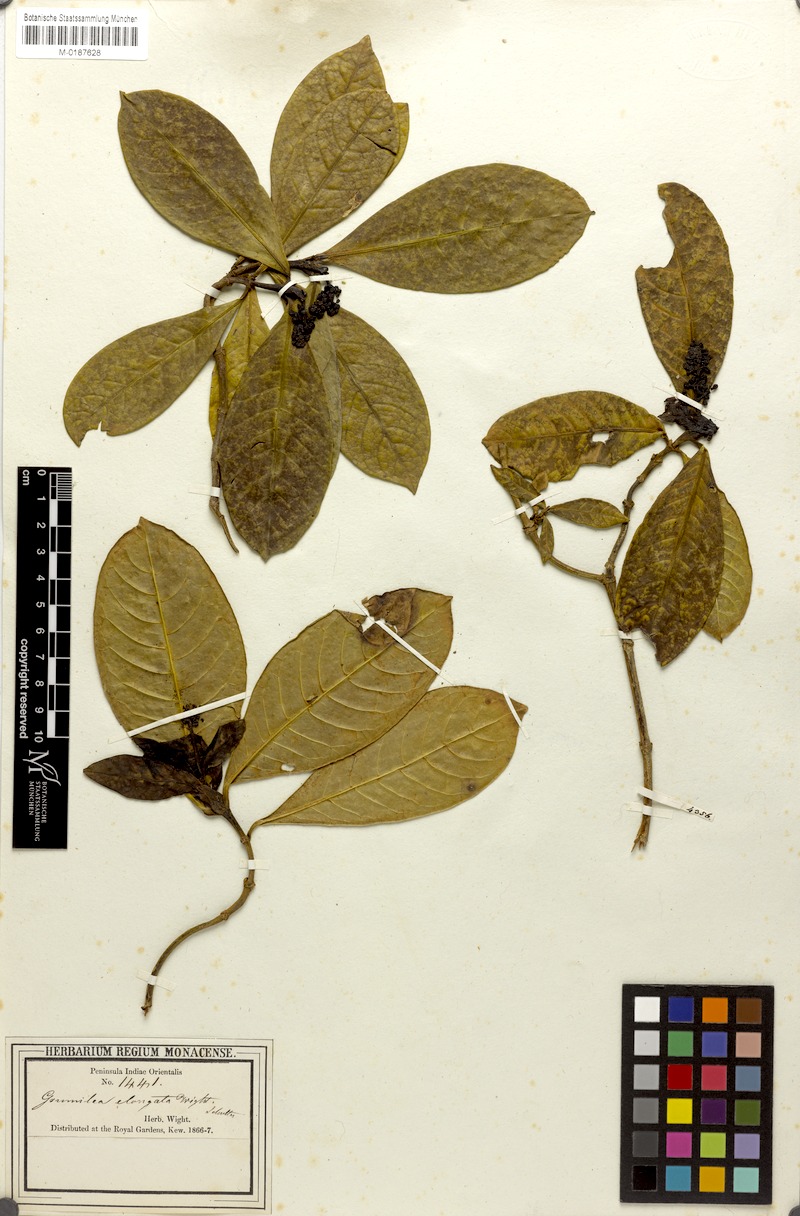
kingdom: Plantae
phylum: Tracheophyta
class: Magnoliopsida
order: Gentianales
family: Rubiaceae
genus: Psychotria
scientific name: Psychotria nilgherensis
